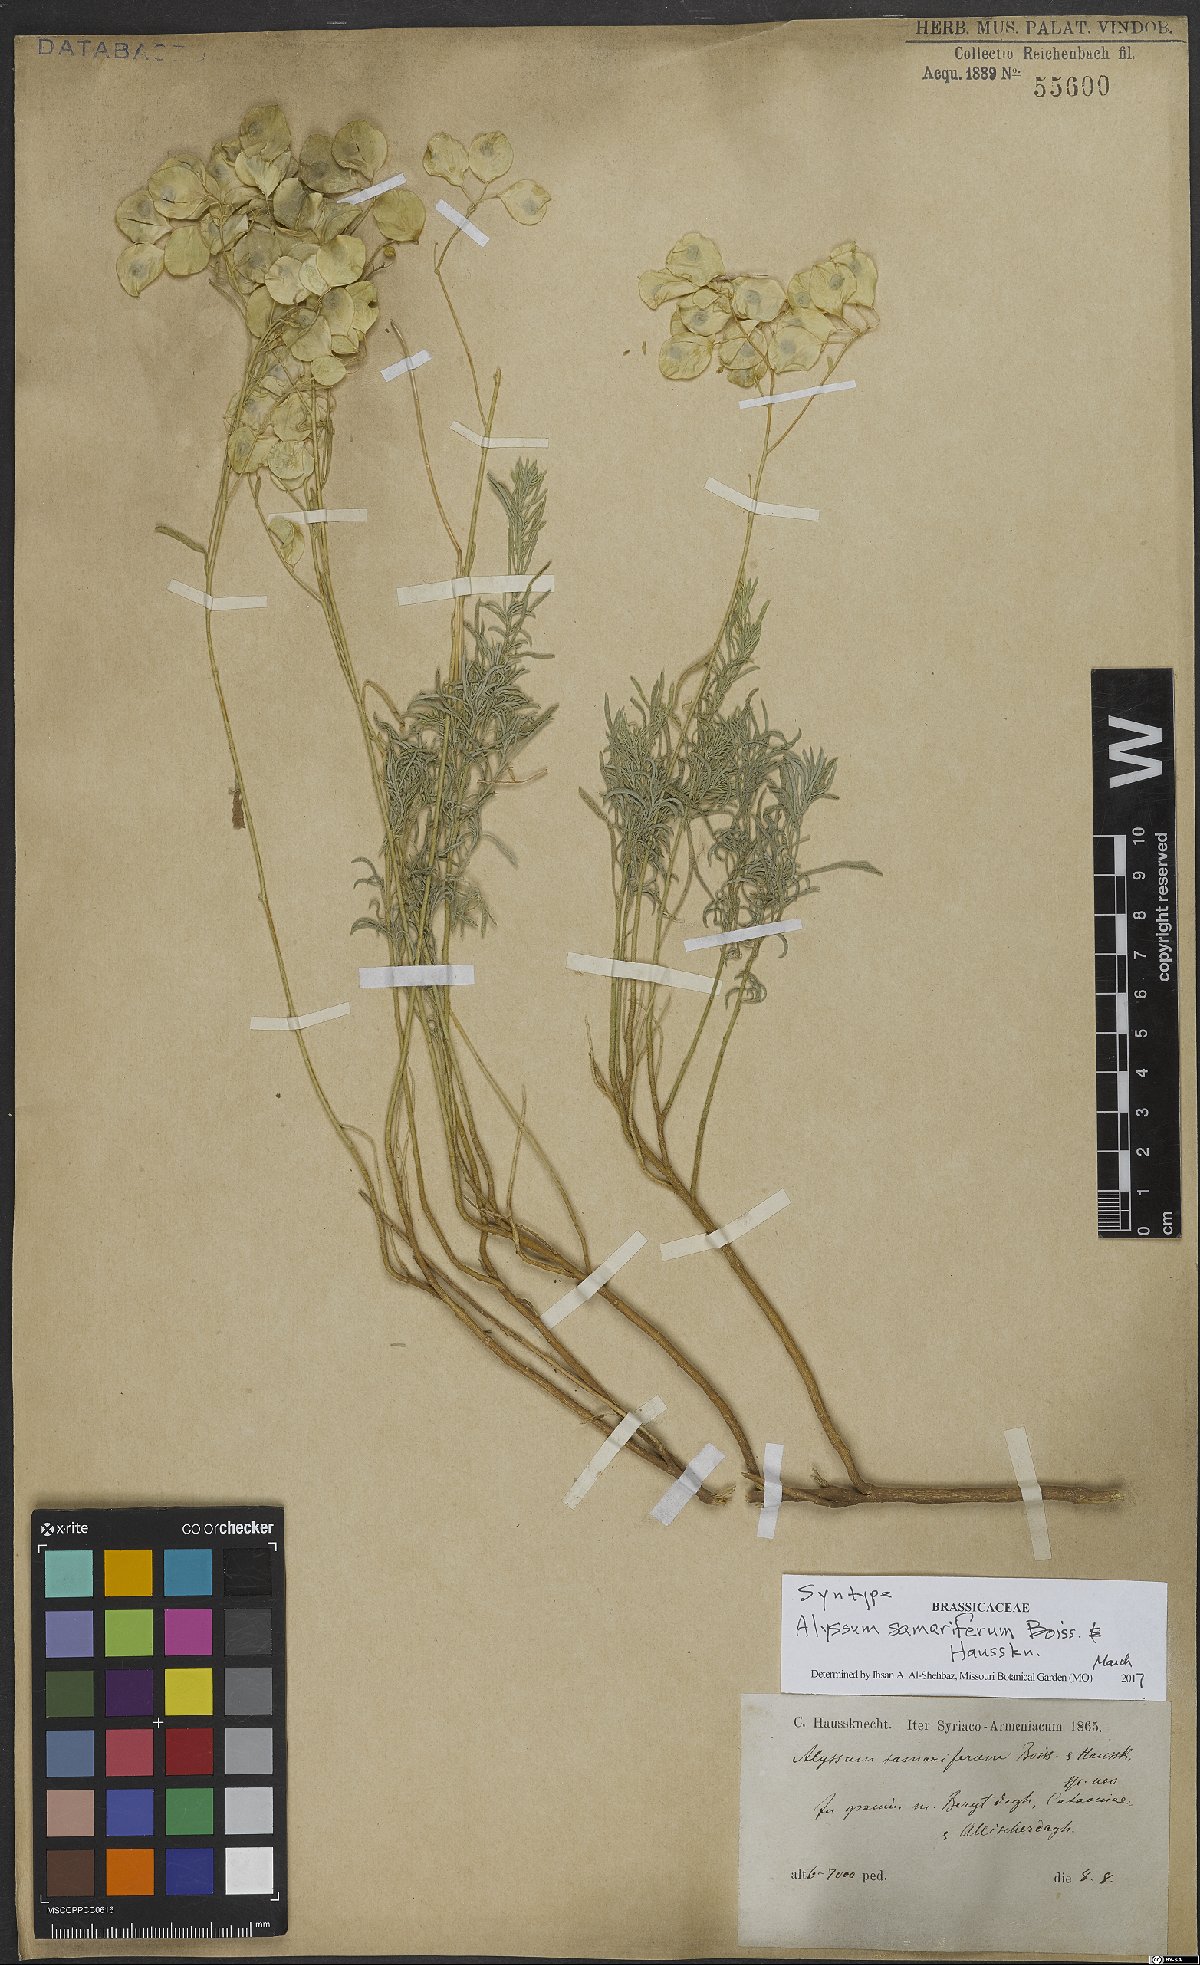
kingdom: Plantae
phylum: Tracheophyta
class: Magnoliopsida
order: Brassicales
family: Brassicaceae
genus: Odontarrhena
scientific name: Odontarrhena samarifera
